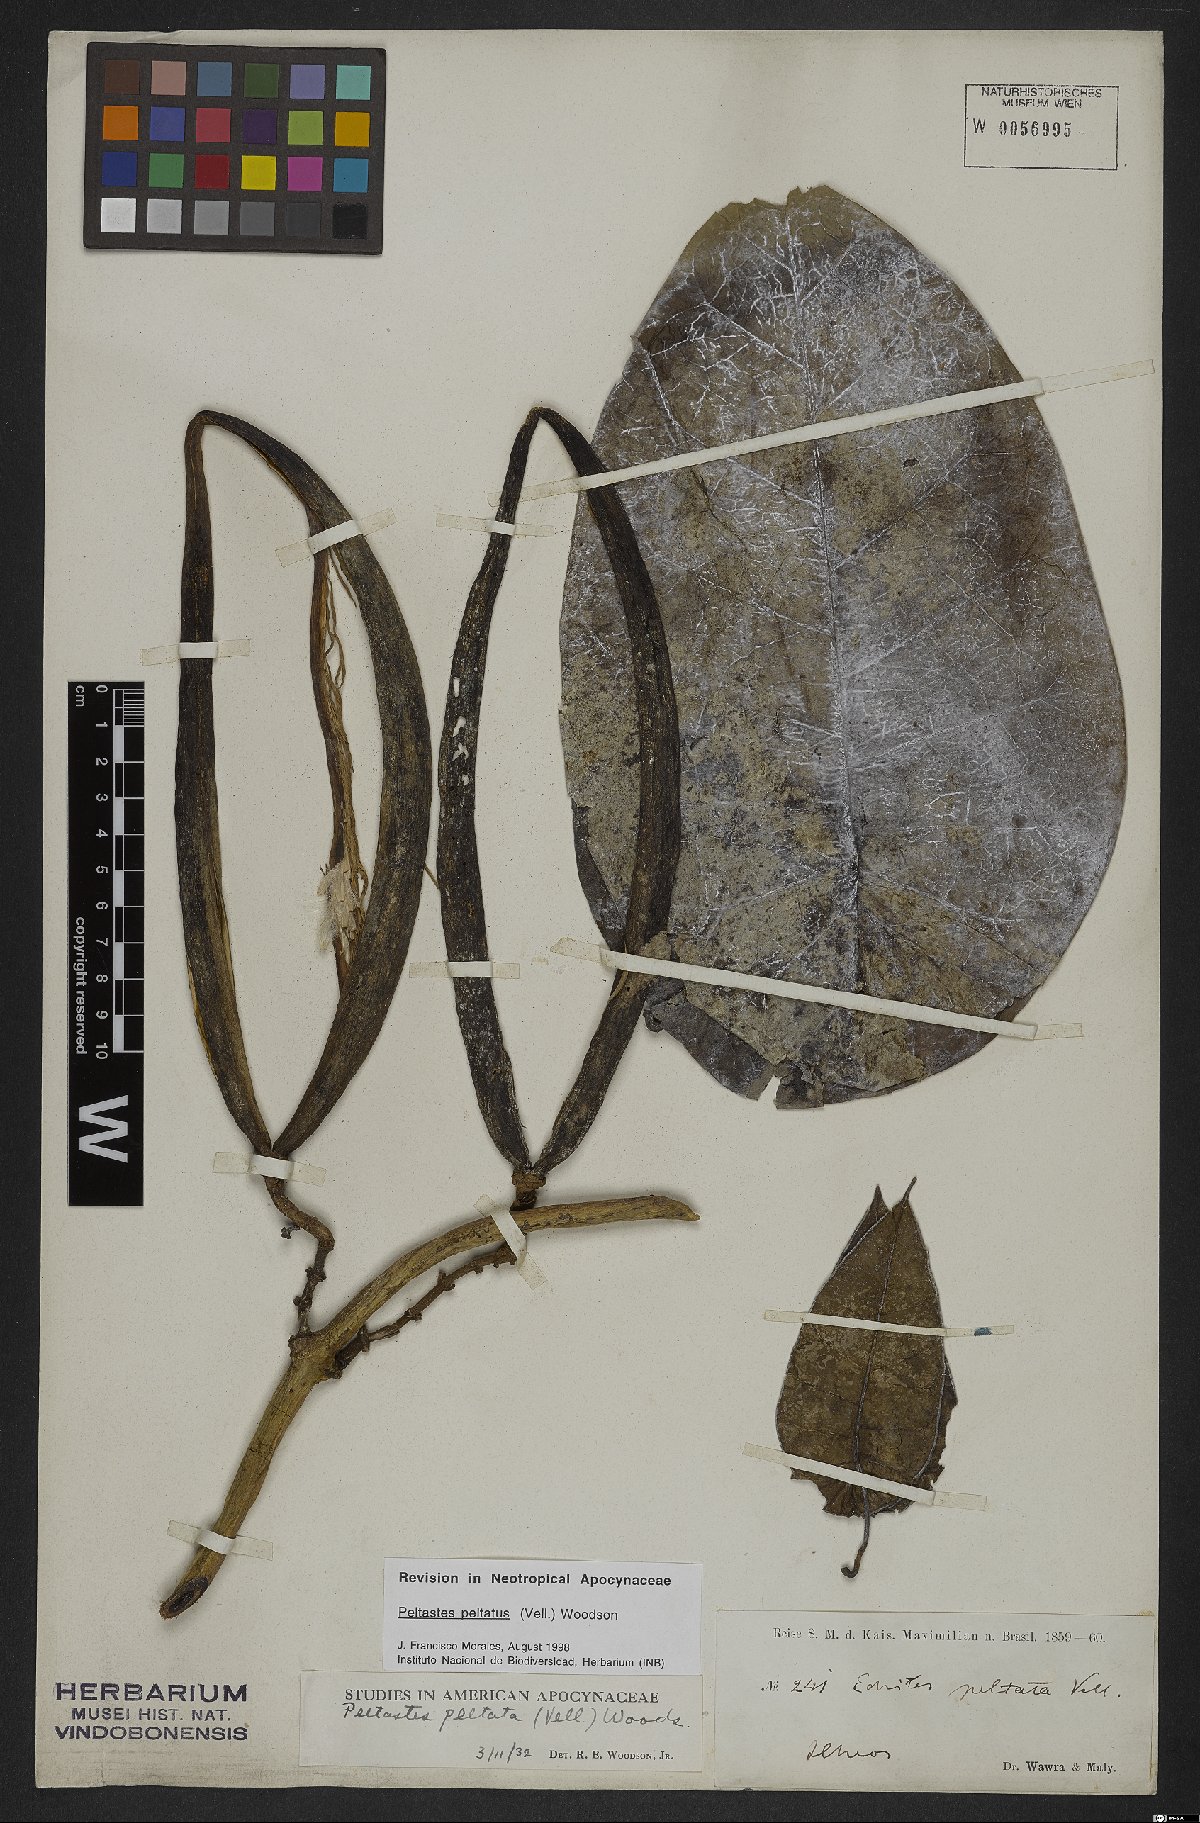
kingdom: Plantae
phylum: Tracheophyta
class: Magnoliopsida
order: Gentianales
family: Apocynaceae
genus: Macropharynx
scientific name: Macropharynx peltata
